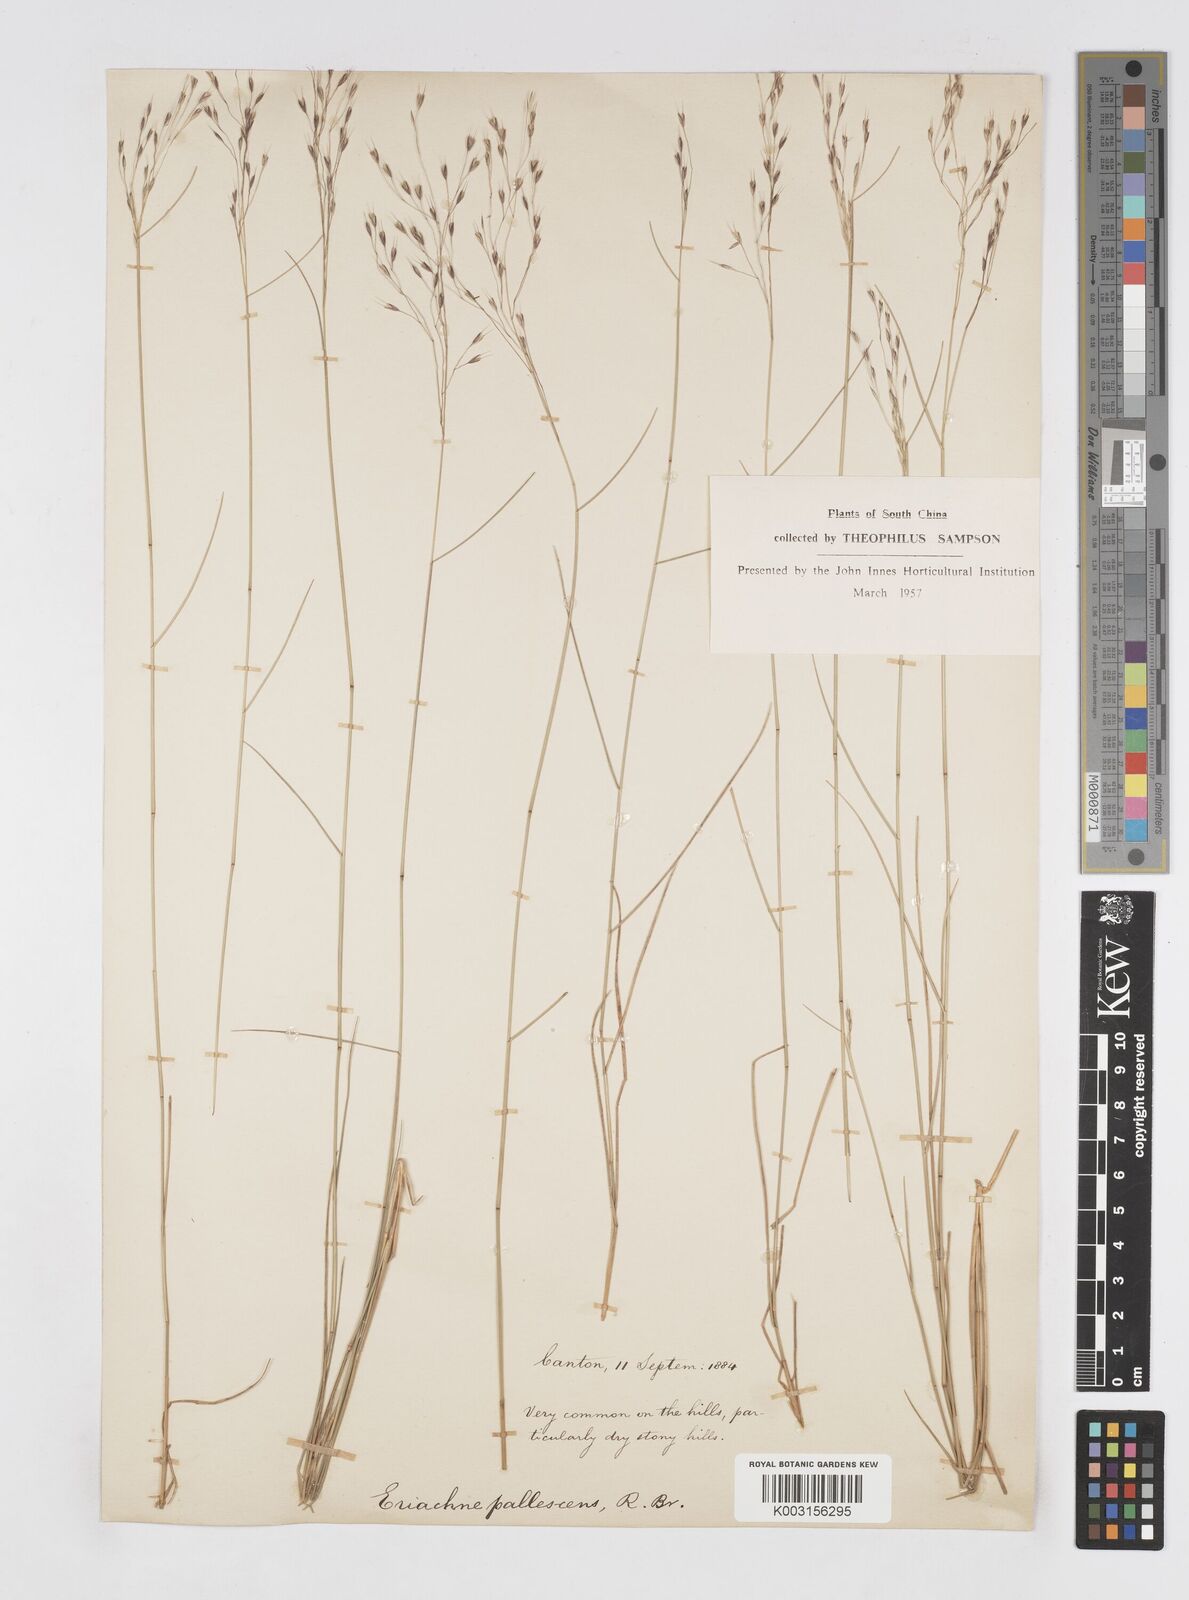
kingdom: Plantae
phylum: Tracheophyta
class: Liliopsida
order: Poales
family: Poaceae
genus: Eriachne
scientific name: Eriachne pallescens
